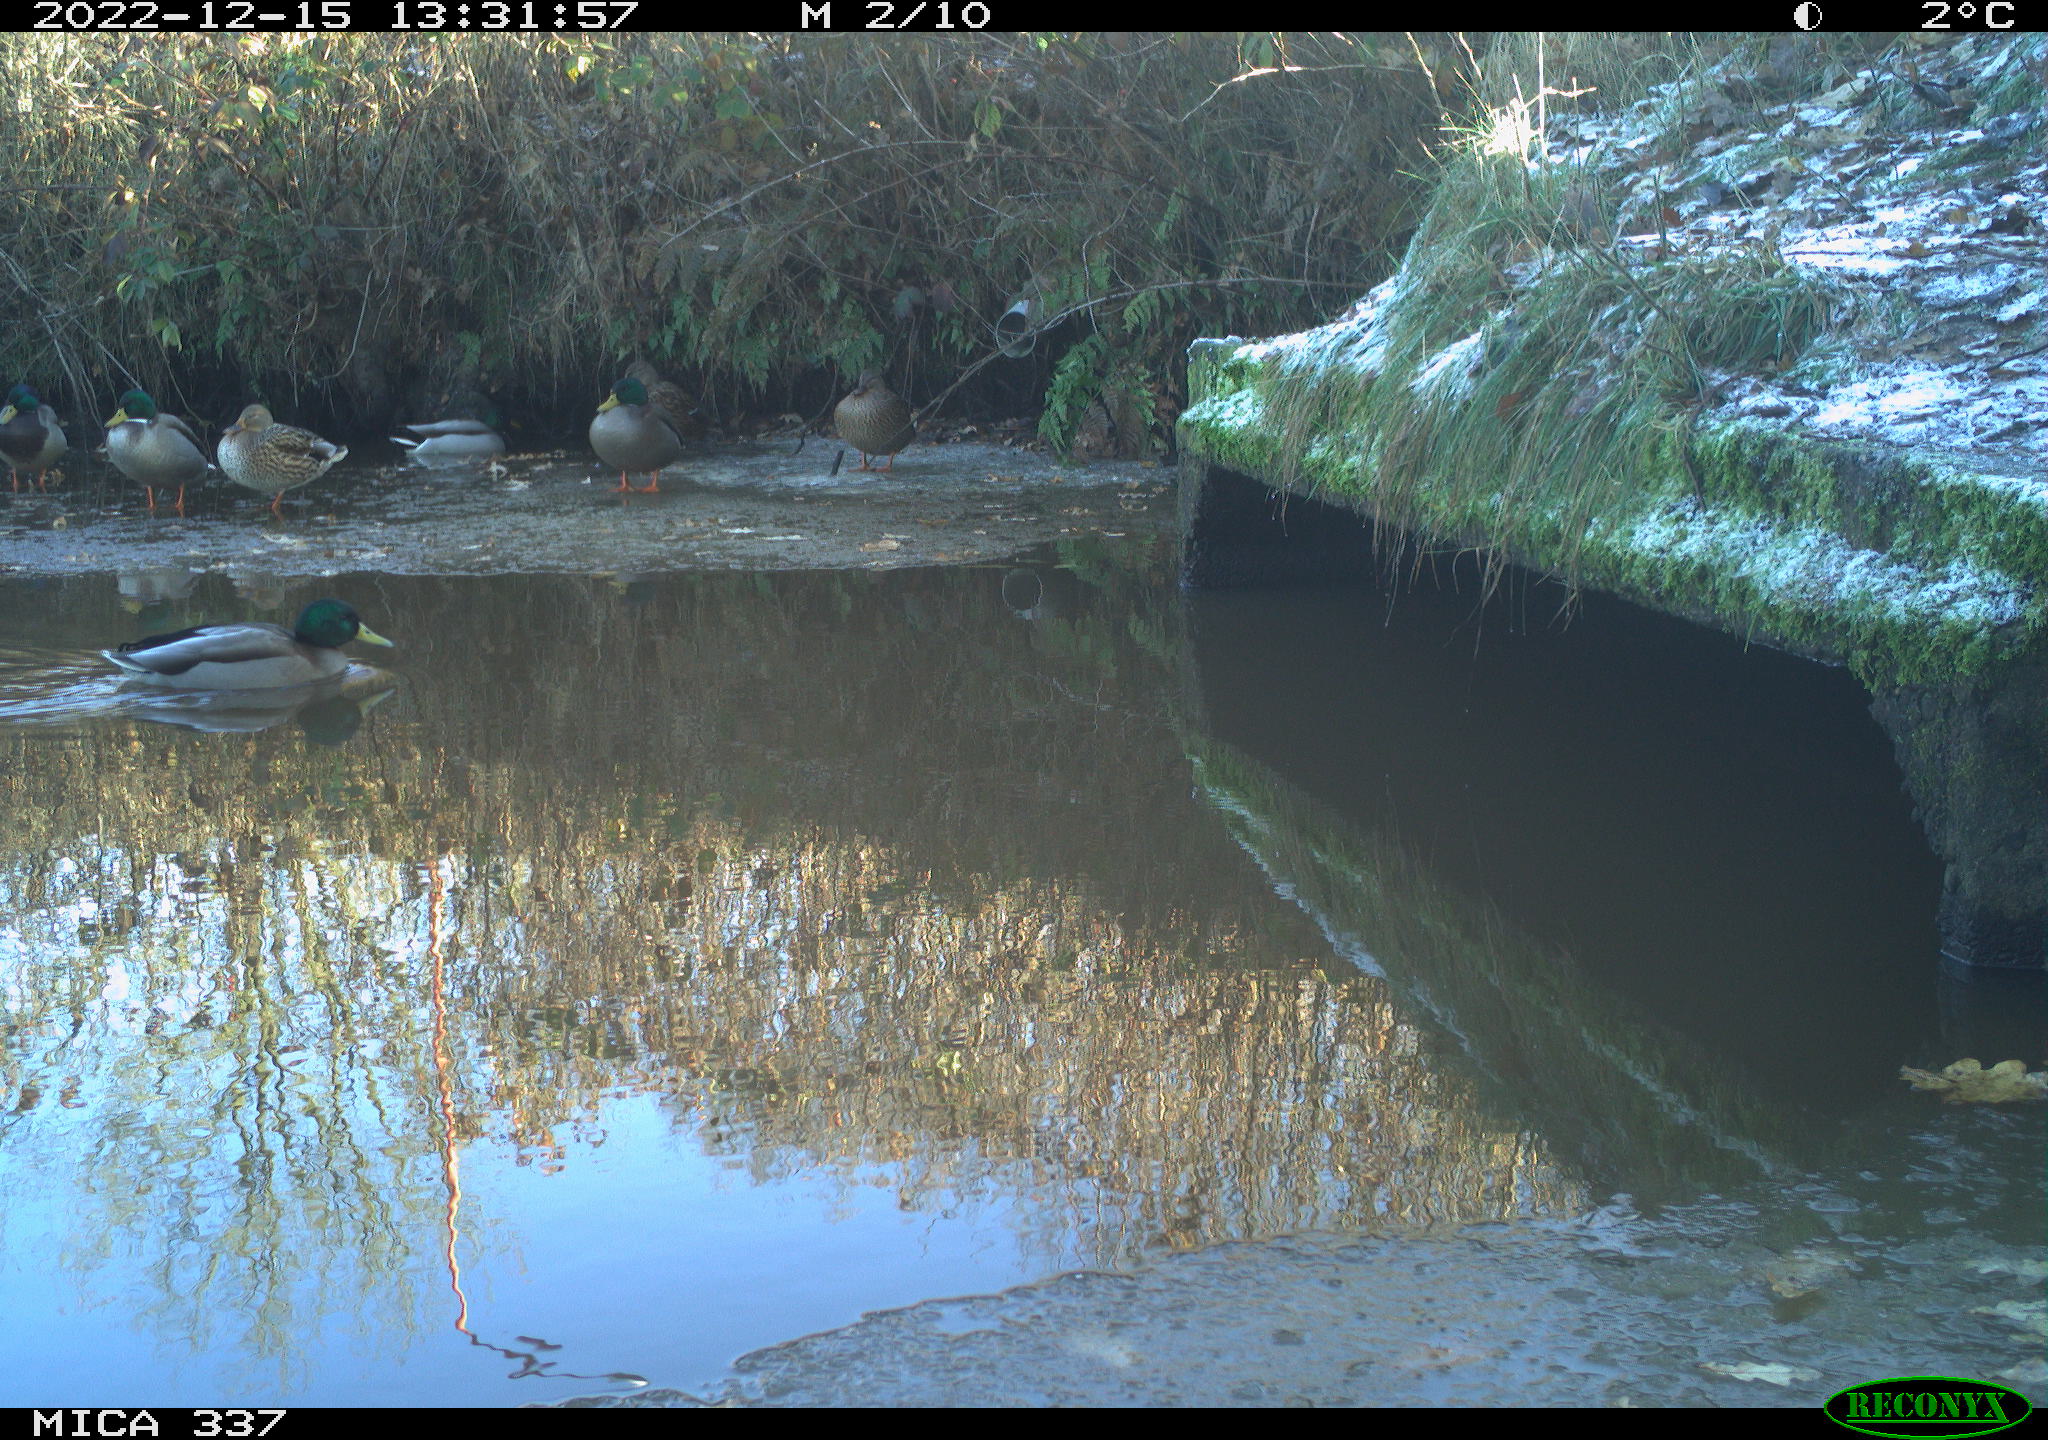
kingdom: Animalia
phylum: Chordata
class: Aves
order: Anseriformes
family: Anatidae
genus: Anas
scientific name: Anas
